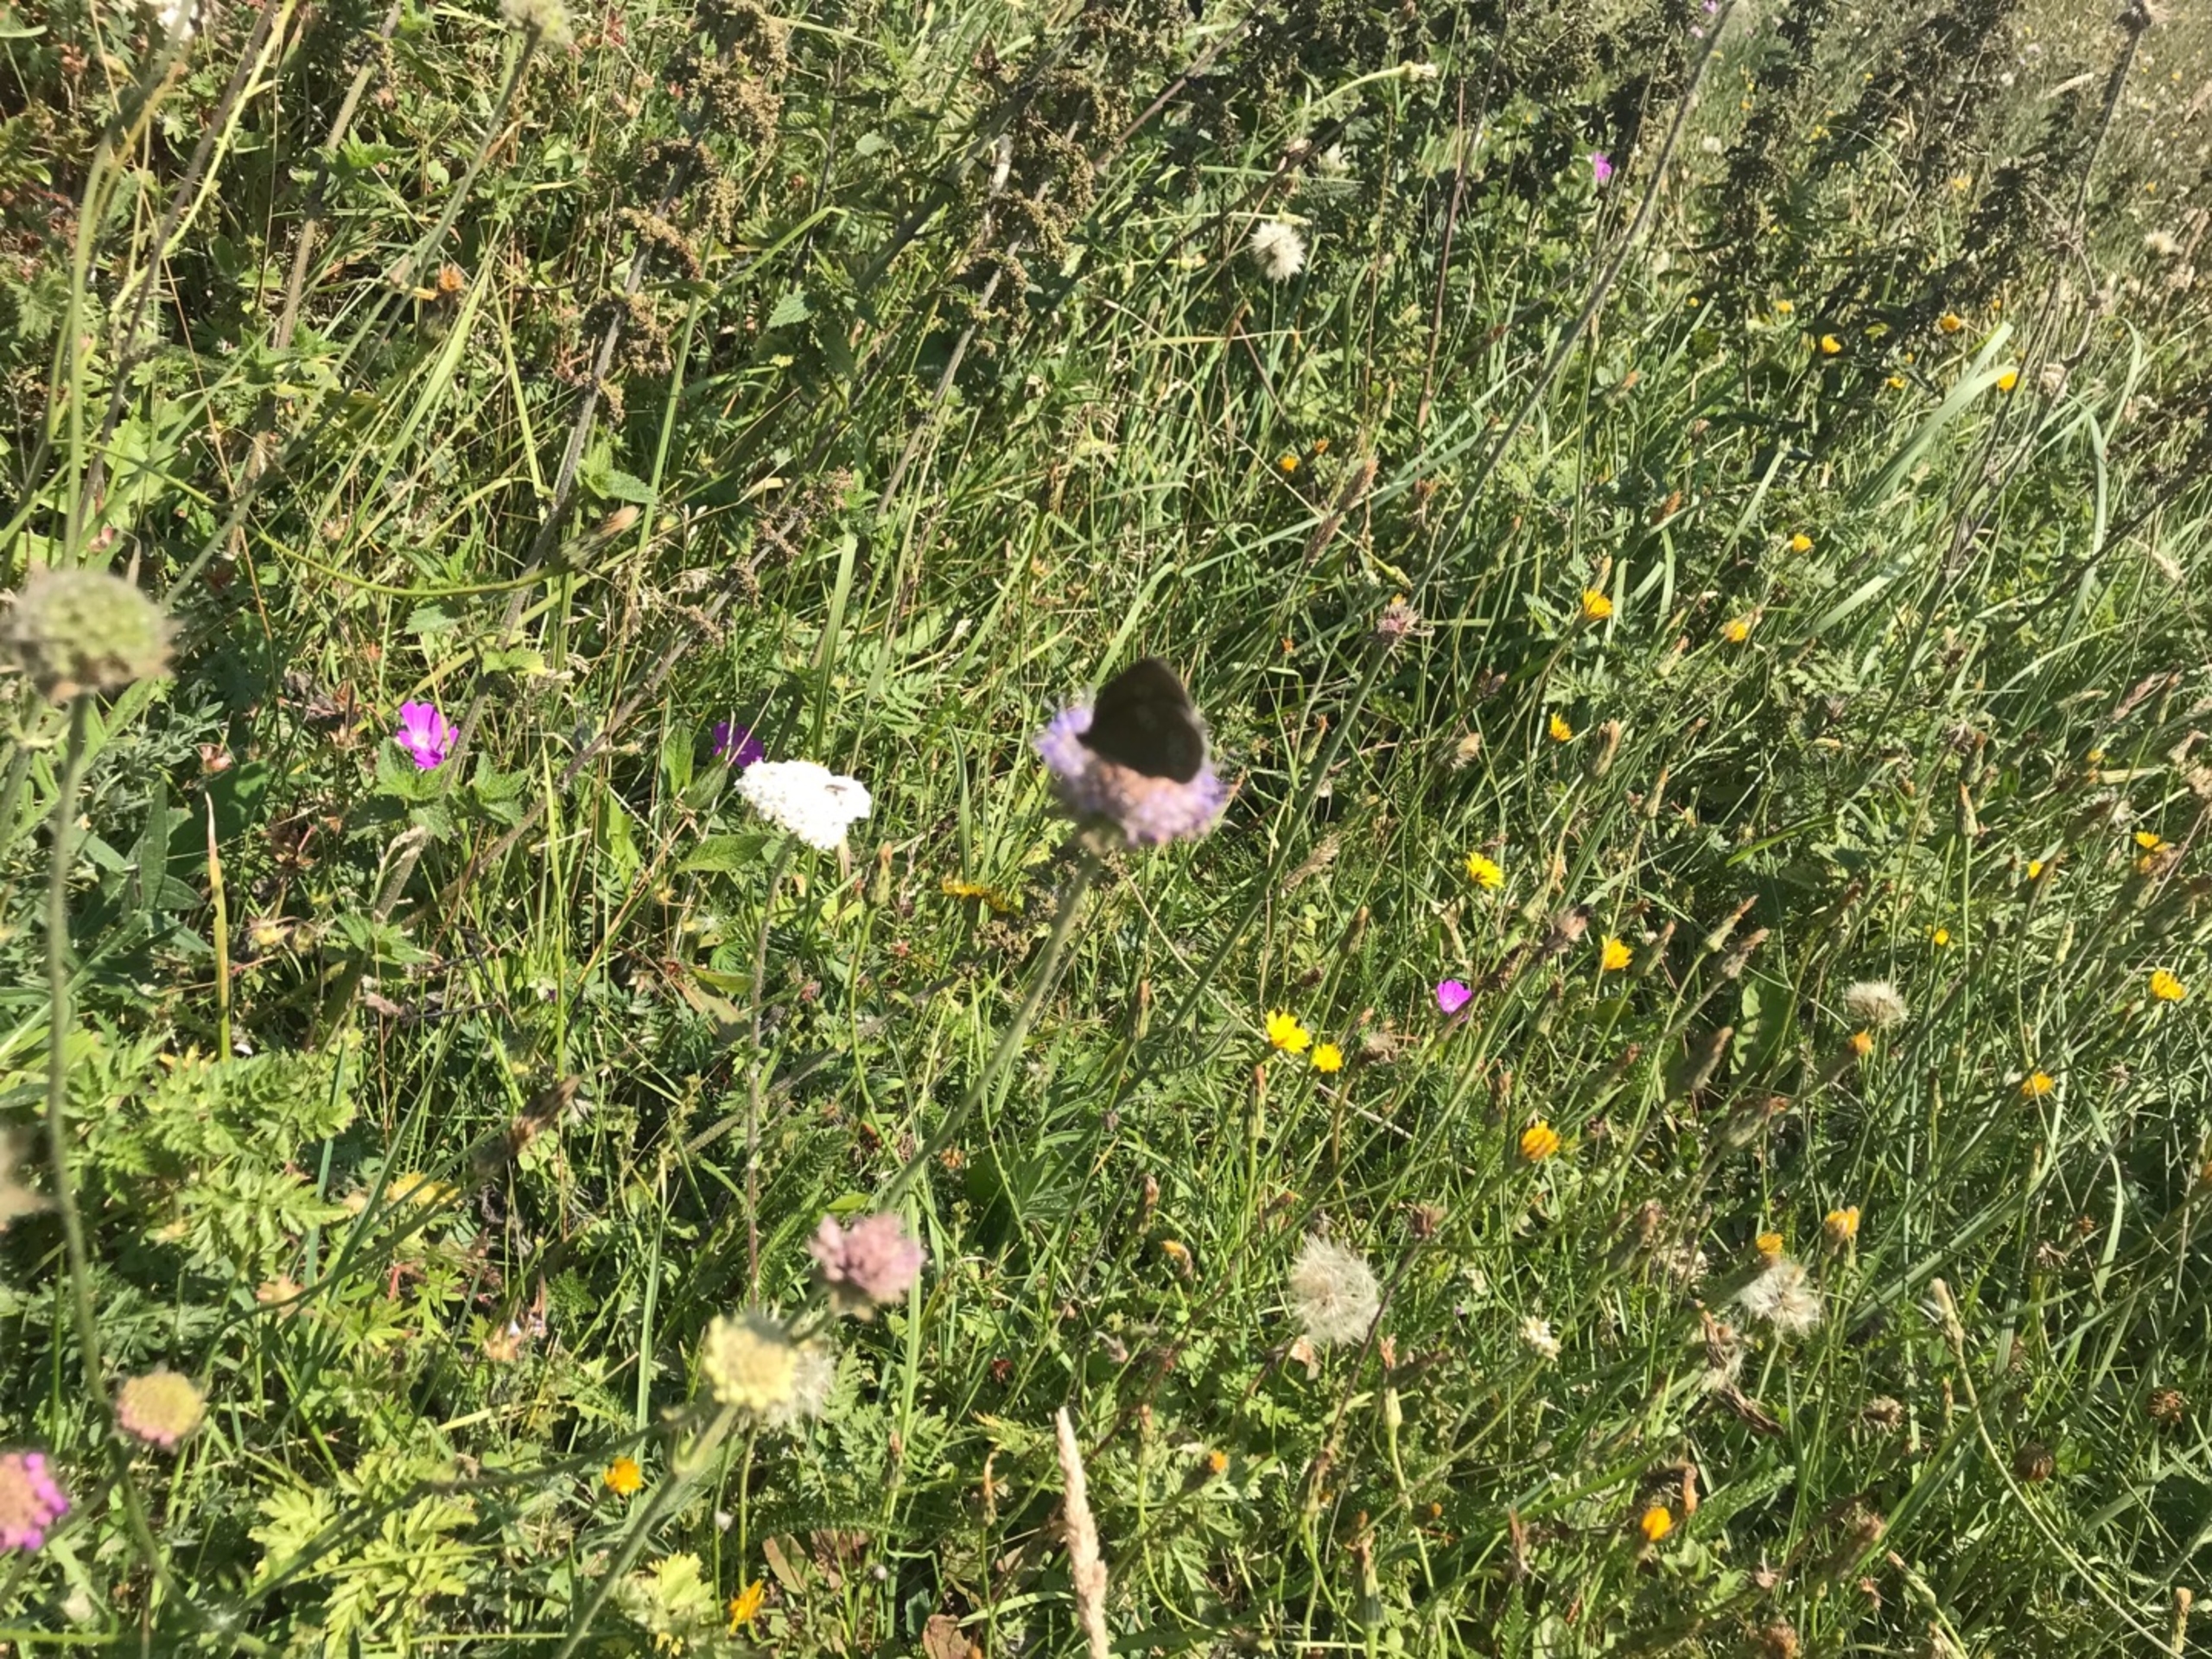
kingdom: Animalia
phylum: Arthropoda
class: Insecta
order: Lepidoptera
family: Nymphalidae
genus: Aphantopus
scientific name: Aphantopus hyperantus
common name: Engrandøje
